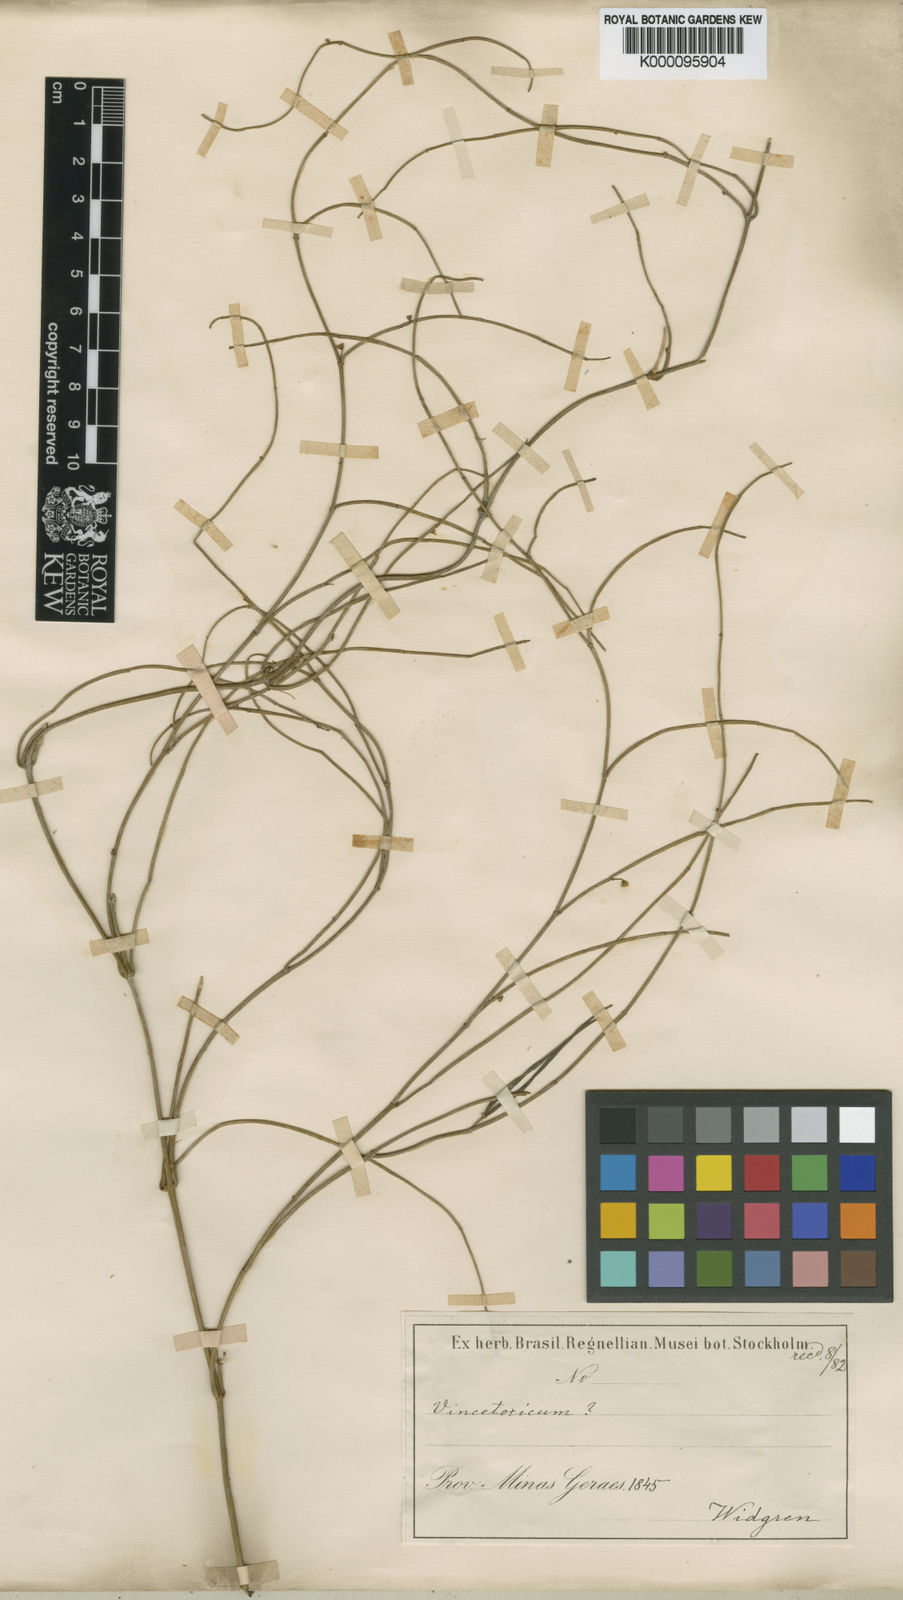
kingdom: Plantae
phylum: Tracheophyta
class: Magnoliopsida
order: Gentianales
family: Apocynaceae
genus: Orthosia
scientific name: Orthosia scoparia
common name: Leafless swallow-wort
